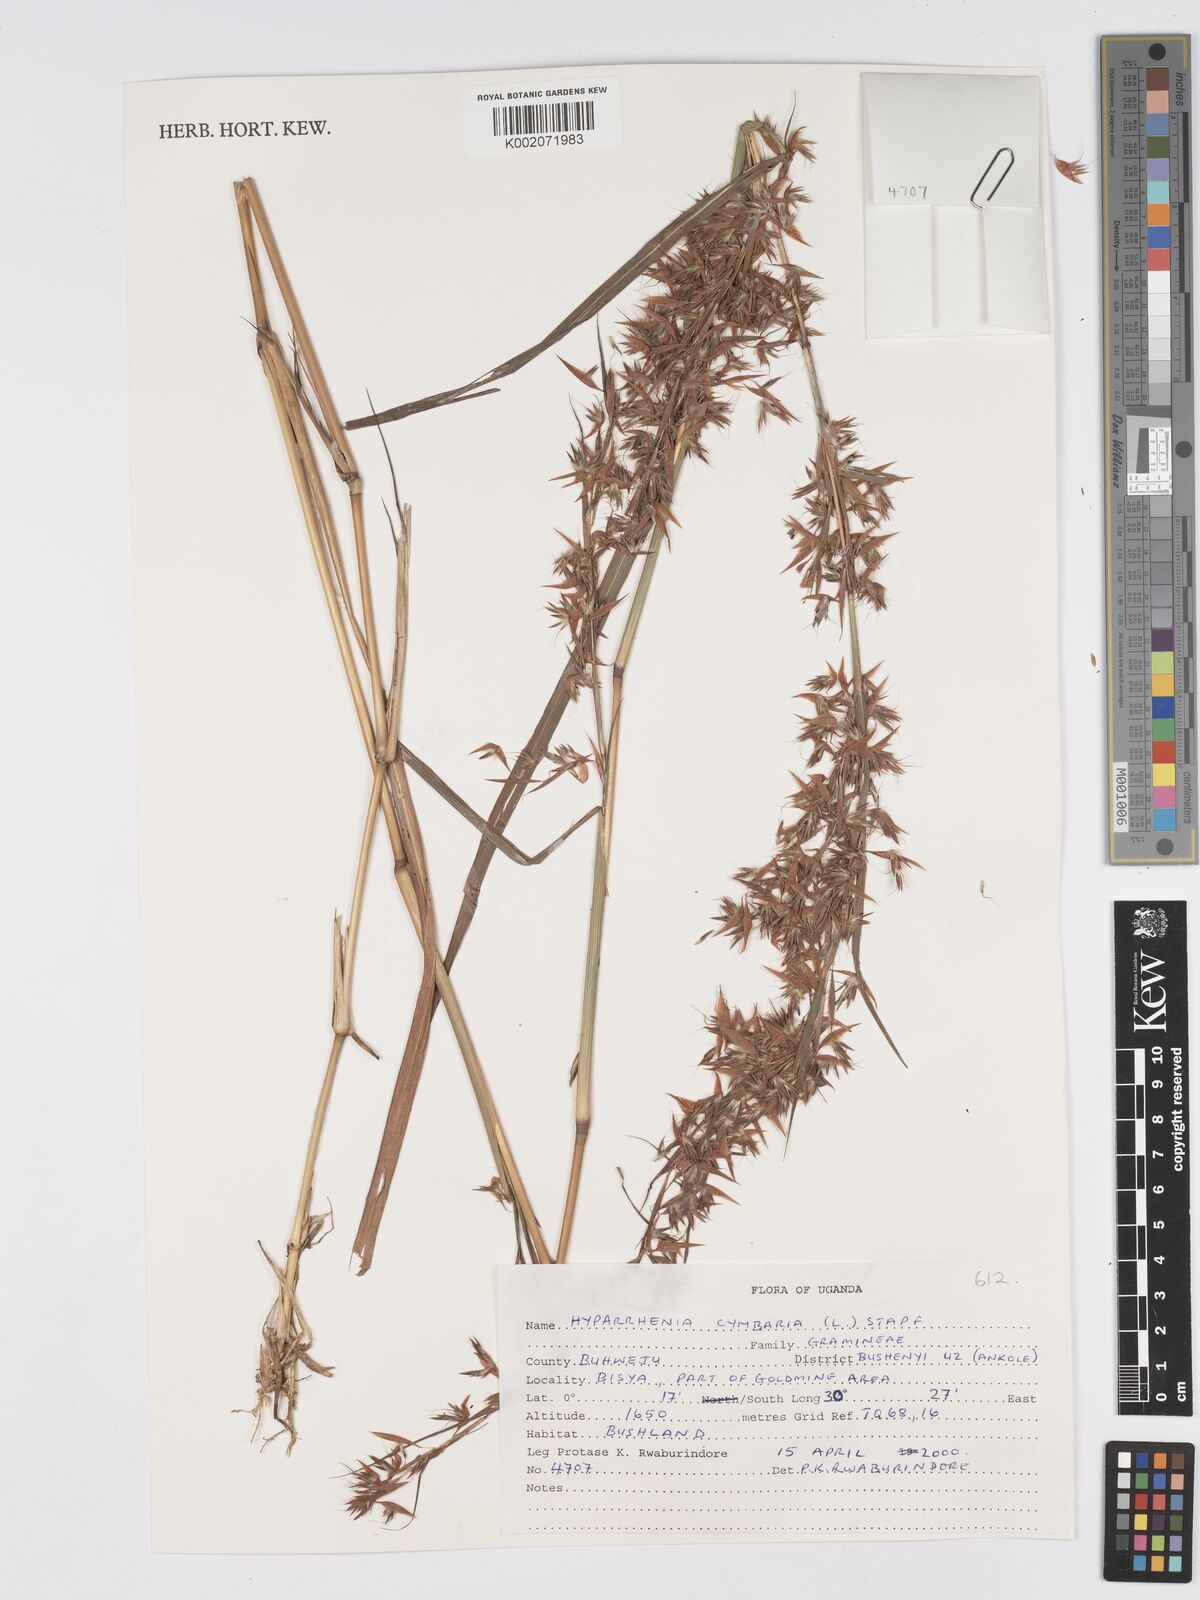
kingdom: Plantae
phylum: Tracheophyta
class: Liliopsida
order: Poales
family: Poaceae
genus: Hyparrhenia
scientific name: Hyparrhenia cymbaria
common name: Boat thatching grass
